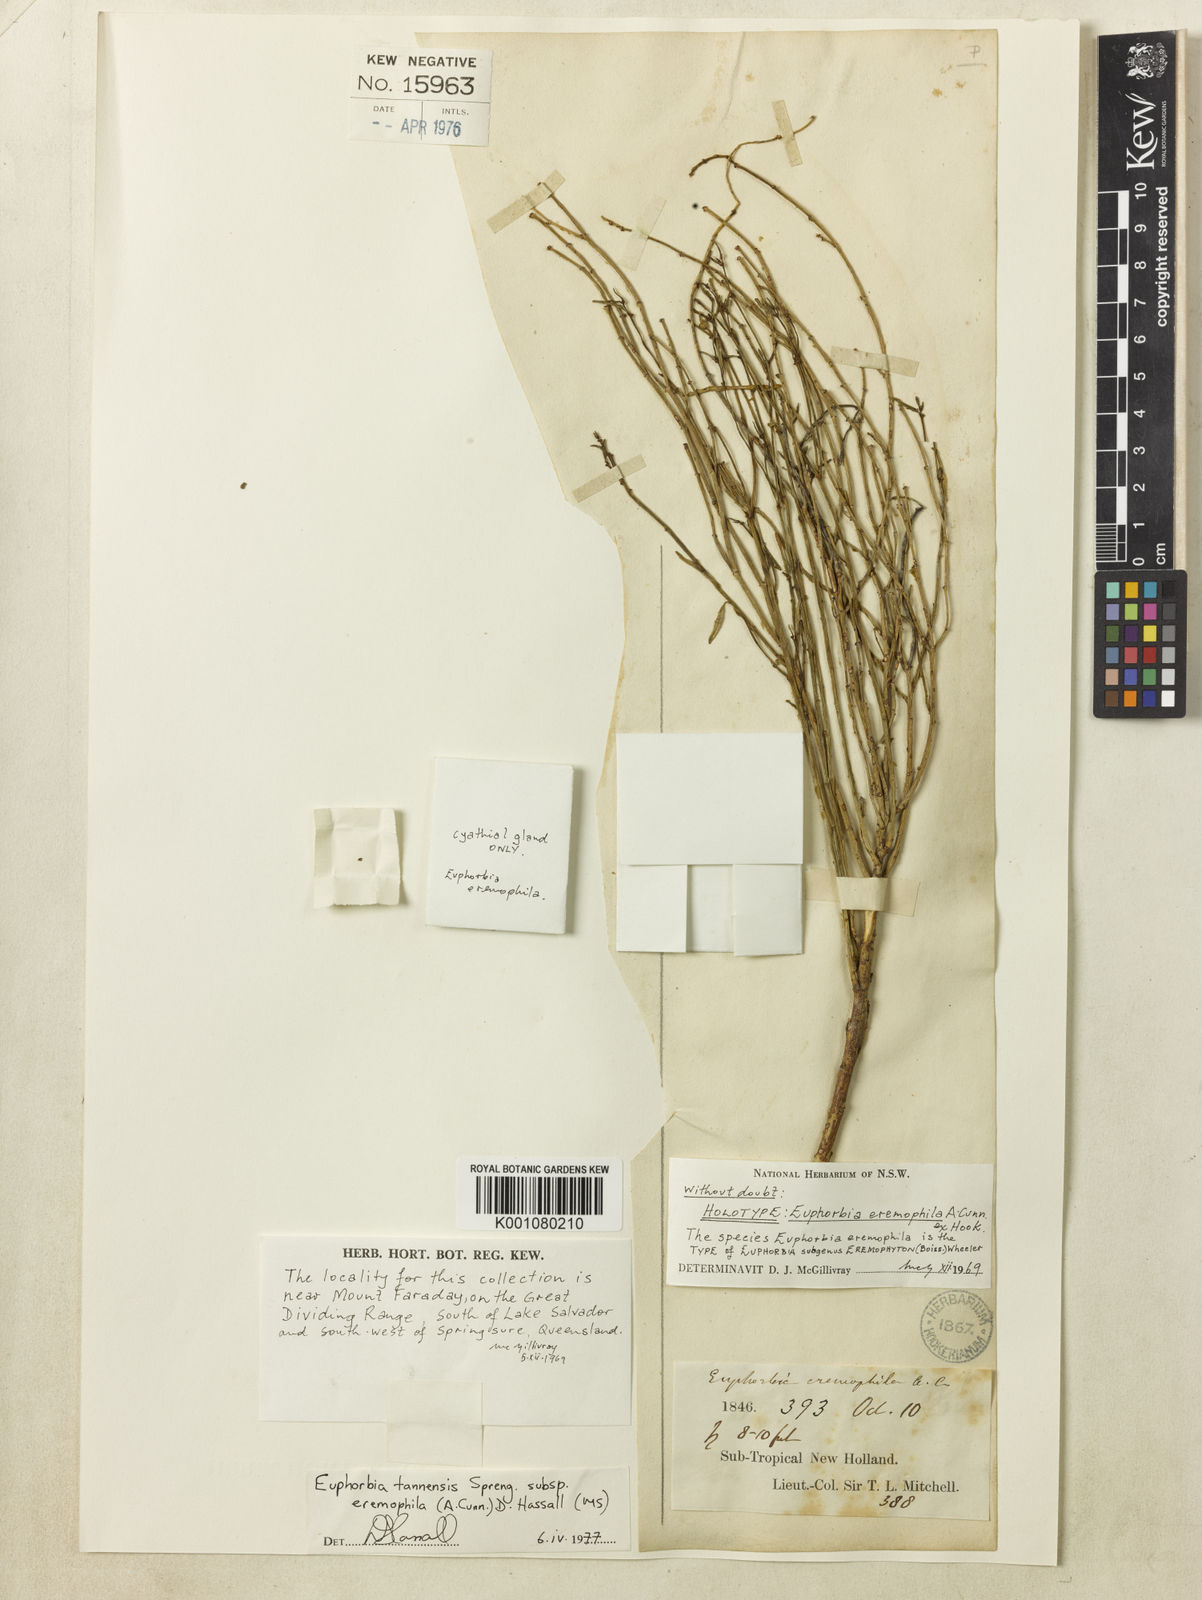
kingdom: Plantae
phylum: Tracheophyta
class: Magnoliopsida
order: Malpighiales
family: Euphorbiaceae
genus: Euphorbia
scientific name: Euphorbia
